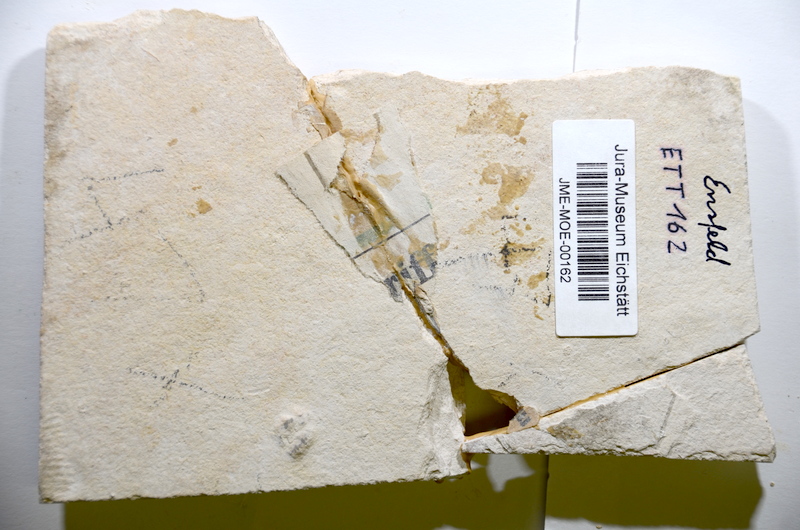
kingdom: Animalia
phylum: Chordata
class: Coelacanthi
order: Coelacanthiformes
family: Coelacanthidae
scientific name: Coelacanthidae
